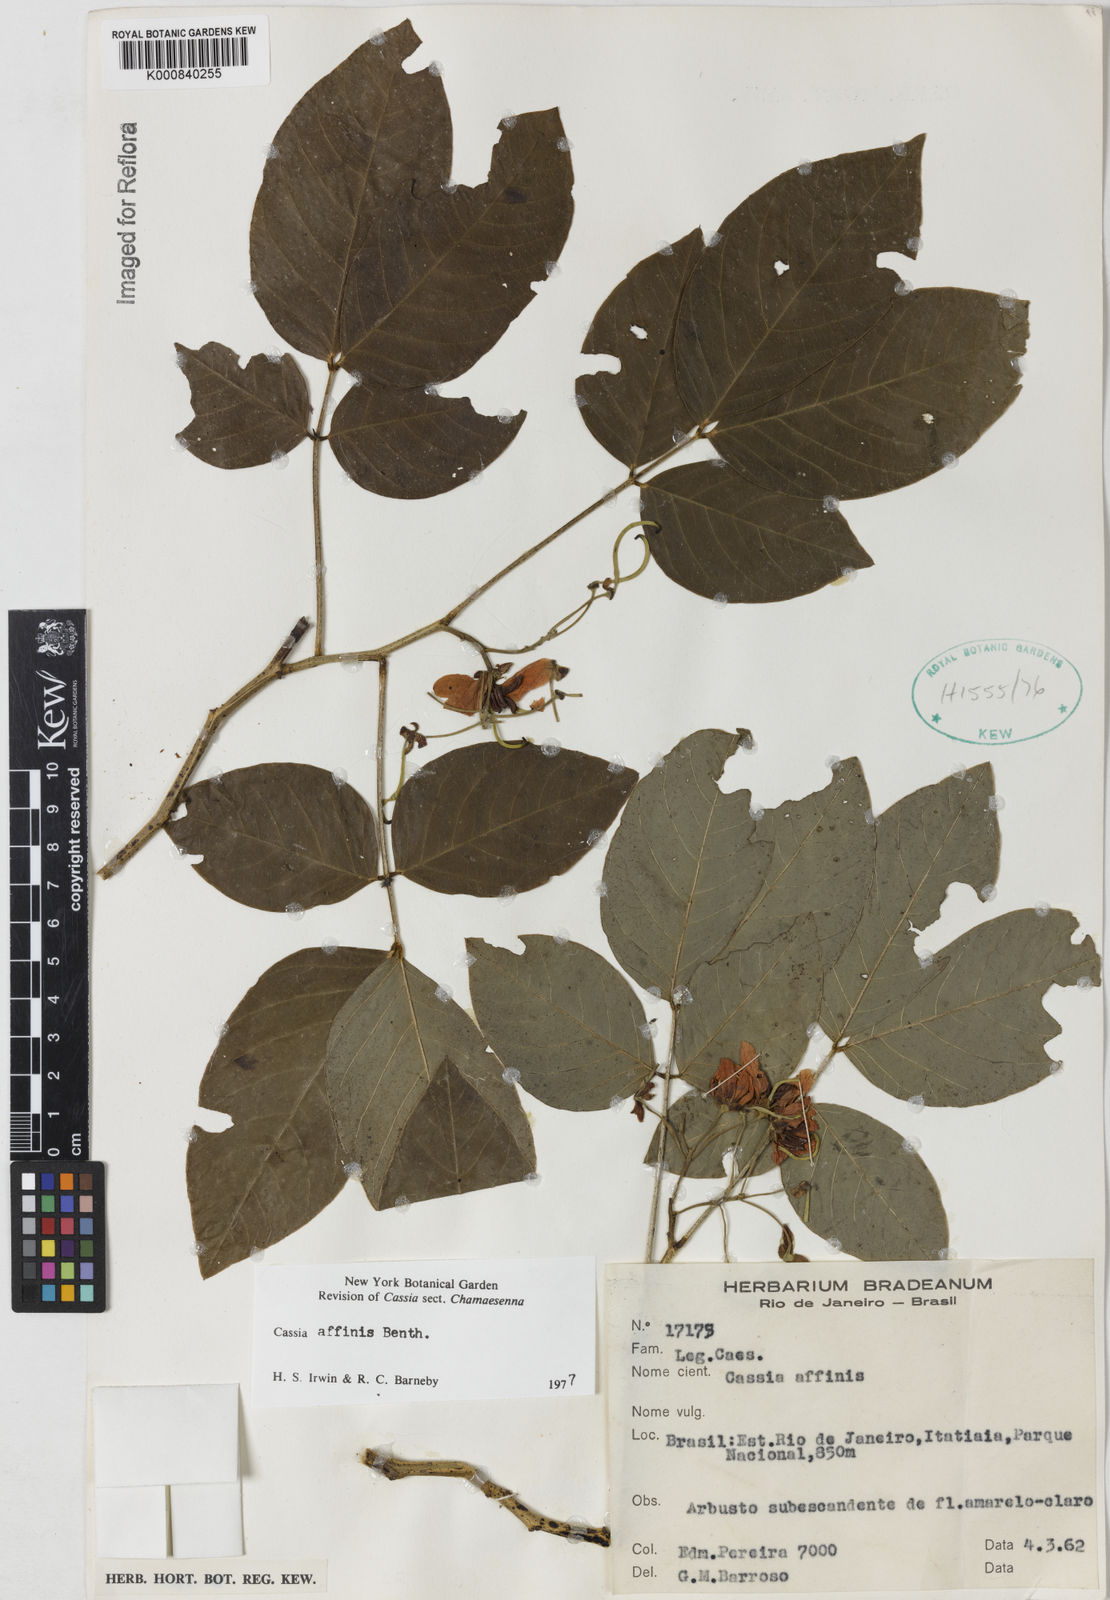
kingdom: Plantae
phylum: Tracheophyta
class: Magnoliopsida
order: Fabales
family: Fabaceae
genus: Senna
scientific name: Senna affinis
